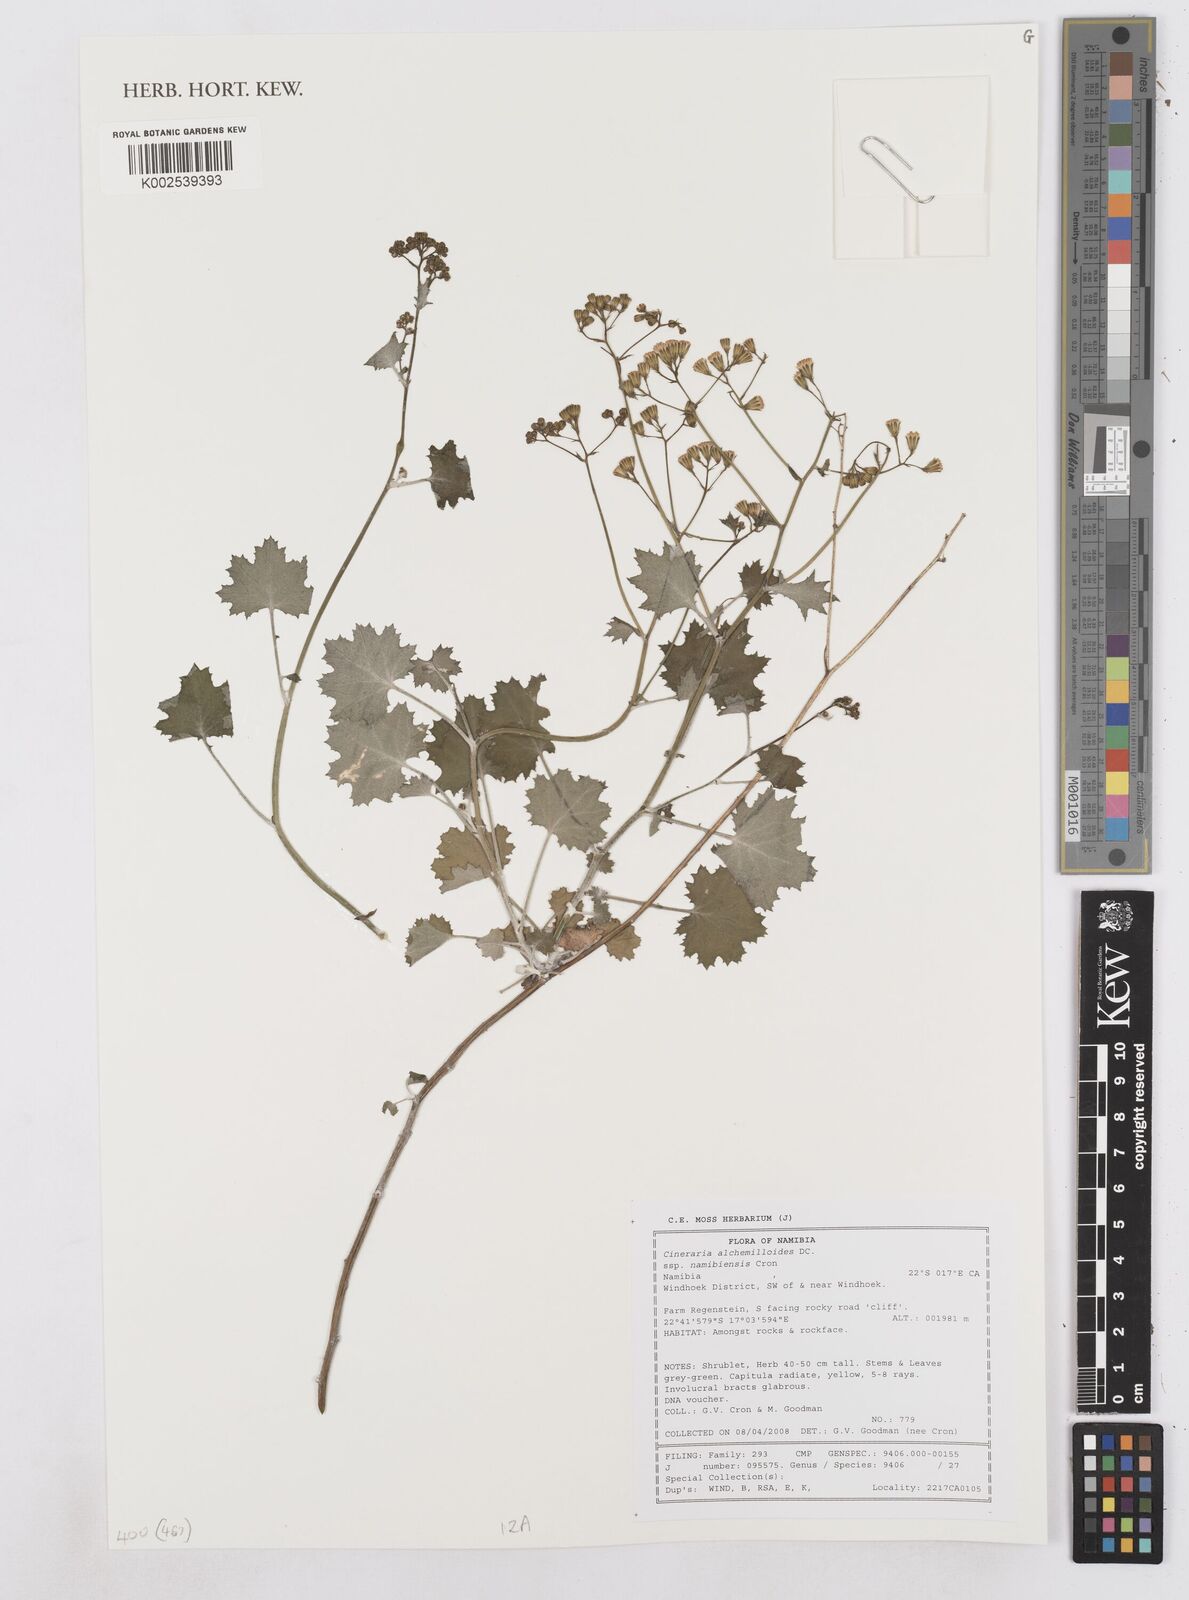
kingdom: Plantae
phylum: Tracheophyta
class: Magnoliopsida
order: Asterales
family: Asteraceae
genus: Cineraria
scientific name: Cineraria alchemilloides
